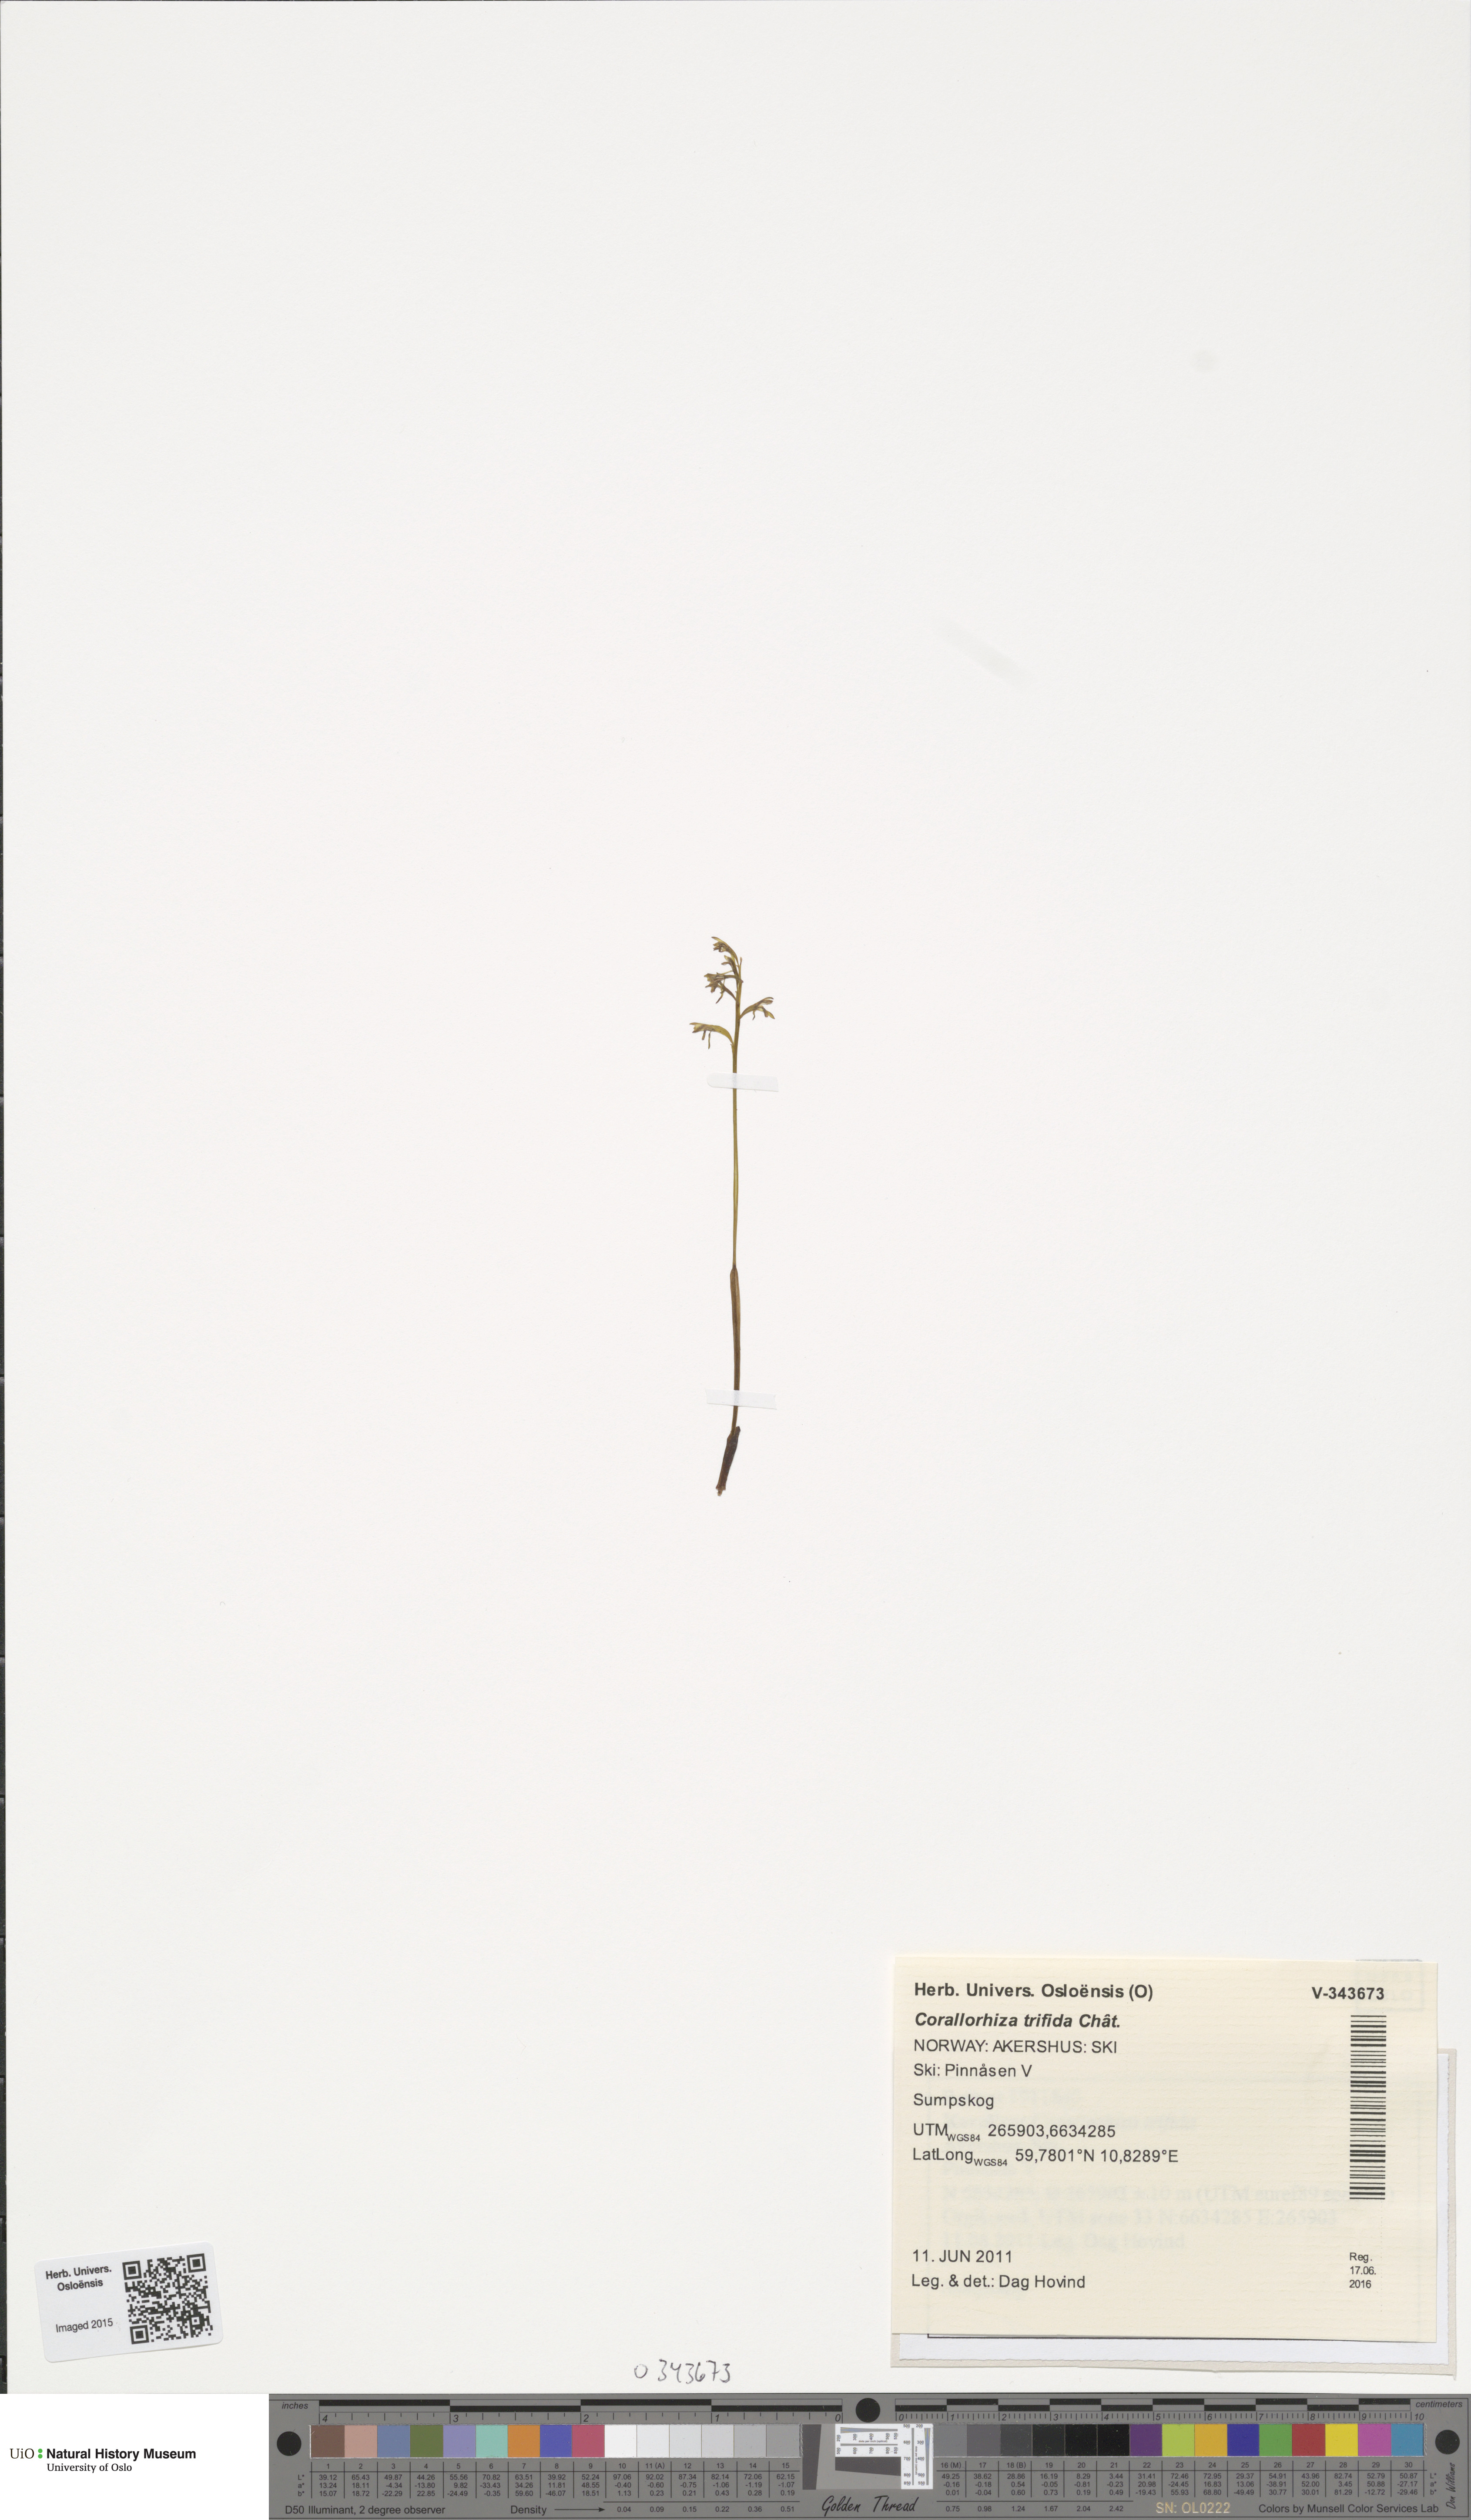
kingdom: Plantae
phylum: Tracheophyta
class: Liliopsida
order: Asparagales
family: Orchidaceae
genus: Corallorhiza
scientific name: Corallorhiza trifida
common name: Yellow coralroot
